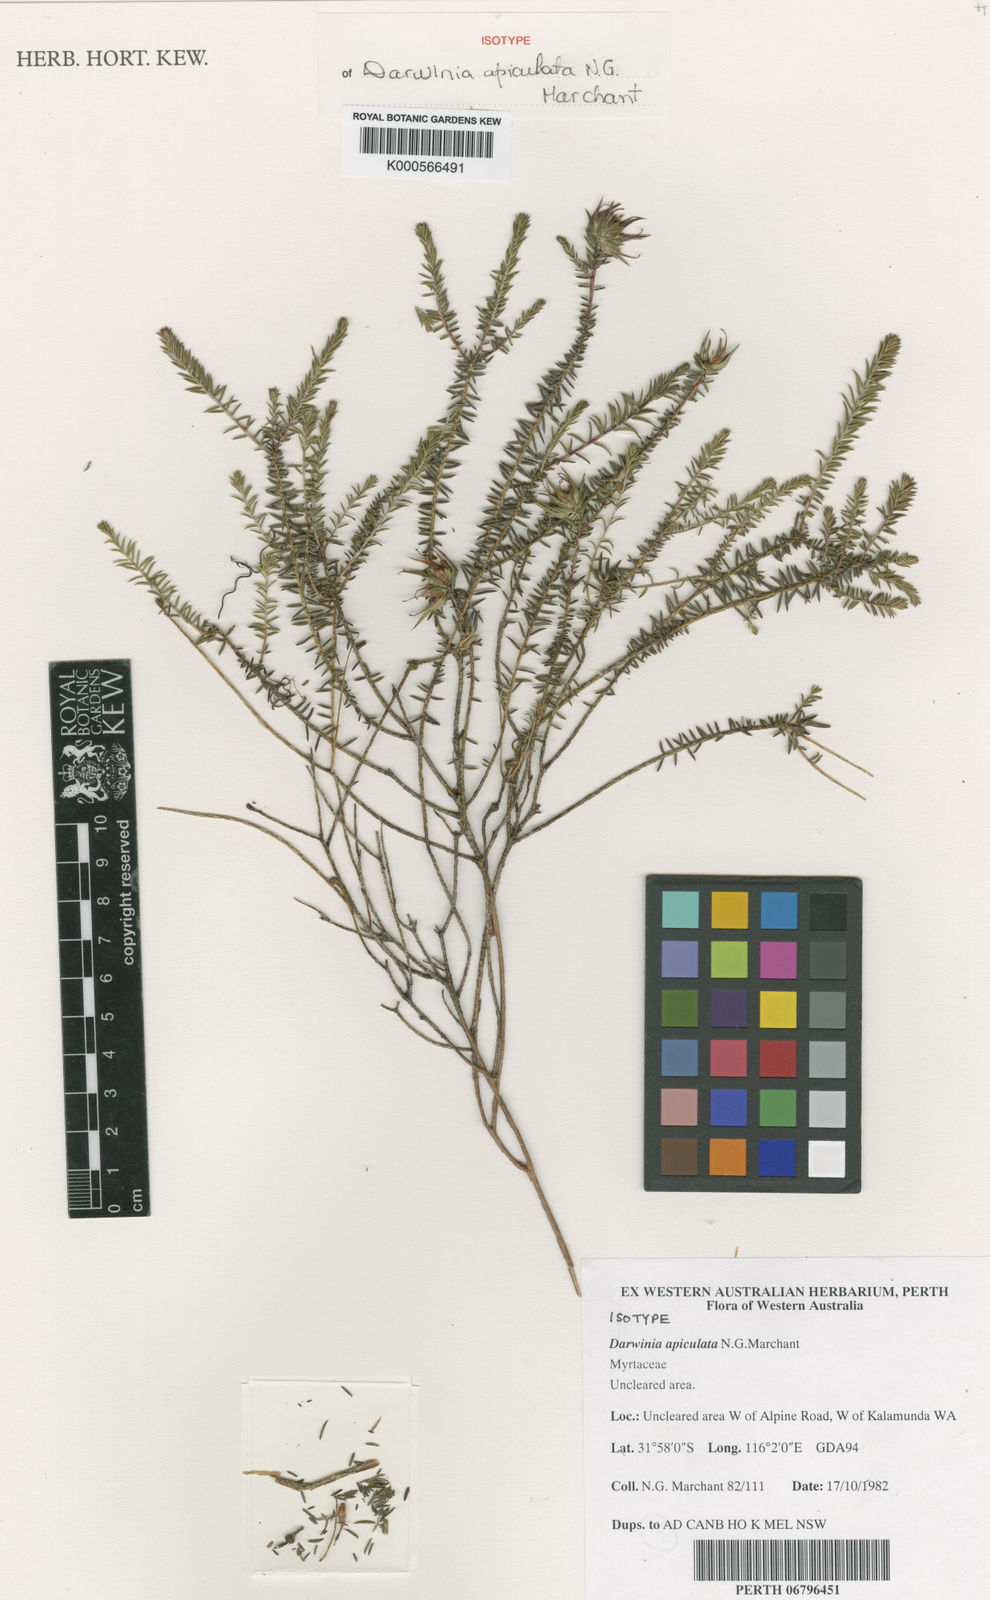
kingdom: Plantae
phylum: Tracheophyta
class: Magnoliopsida
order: Myrtales
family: Myrtaceae
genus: Darwinia
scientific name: Darwinia apiculata
